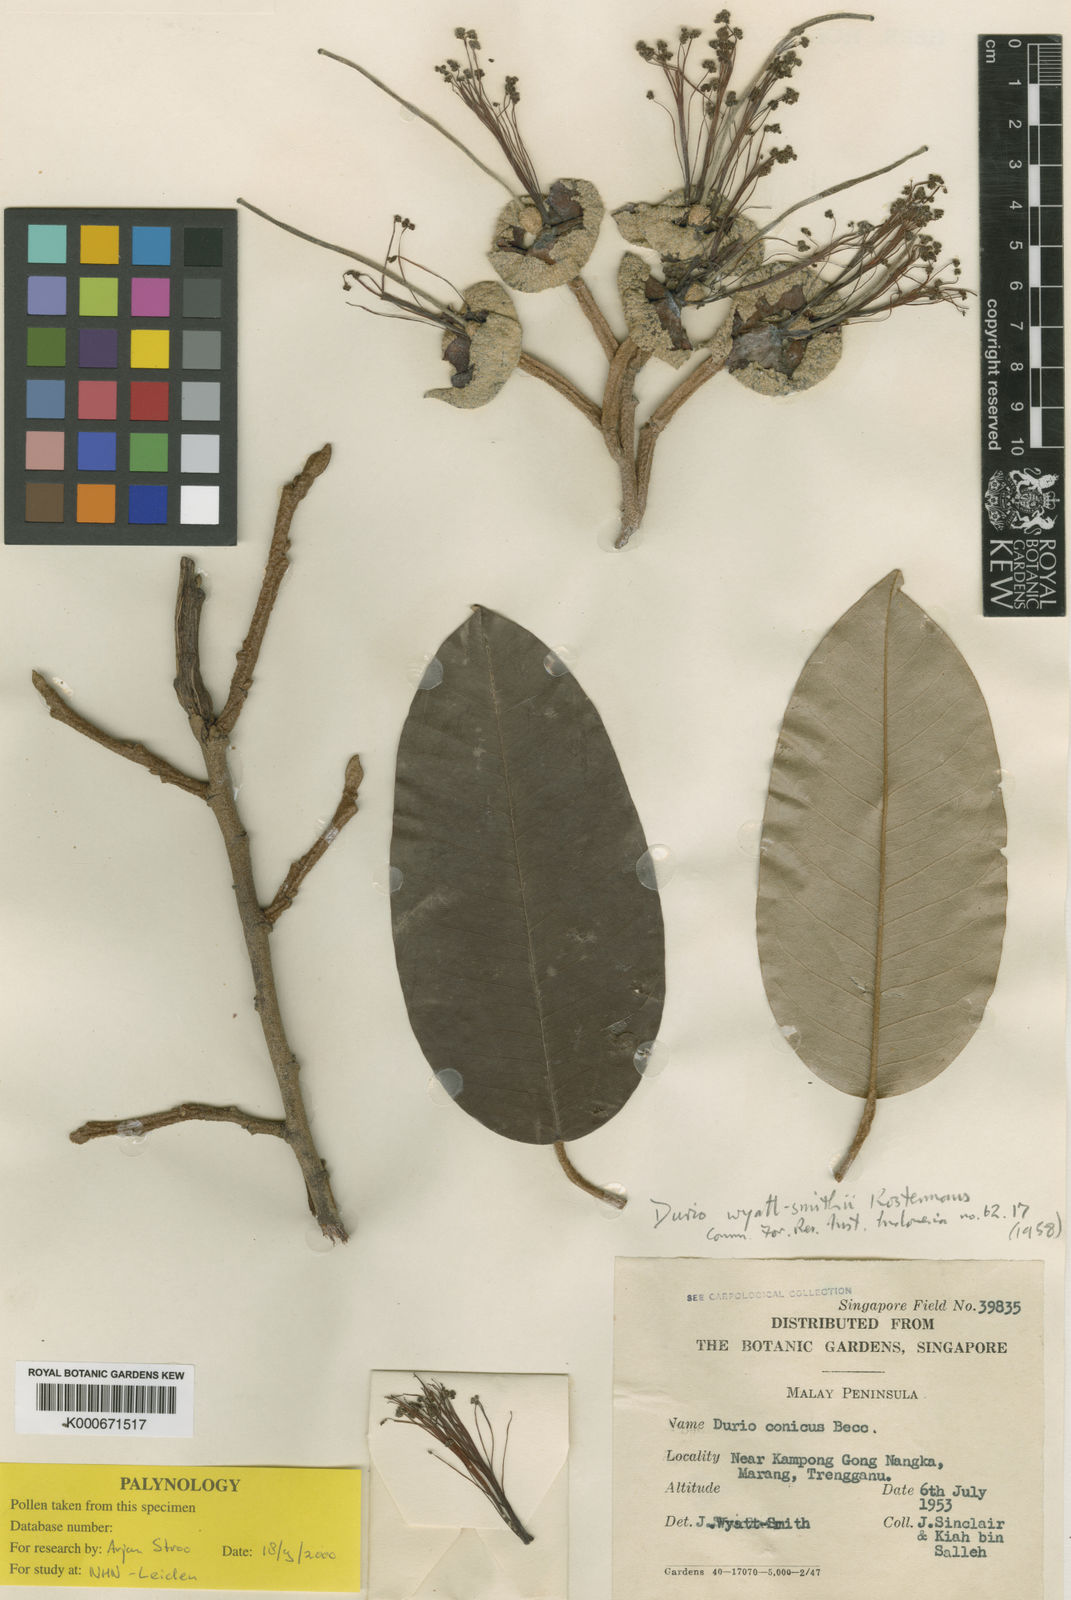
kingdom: Plantae
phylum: Tracheophyta
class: Magnoliopsida
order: Malvales
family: Malvaceae
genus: Durio
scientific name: Durio wyatt-smithii
